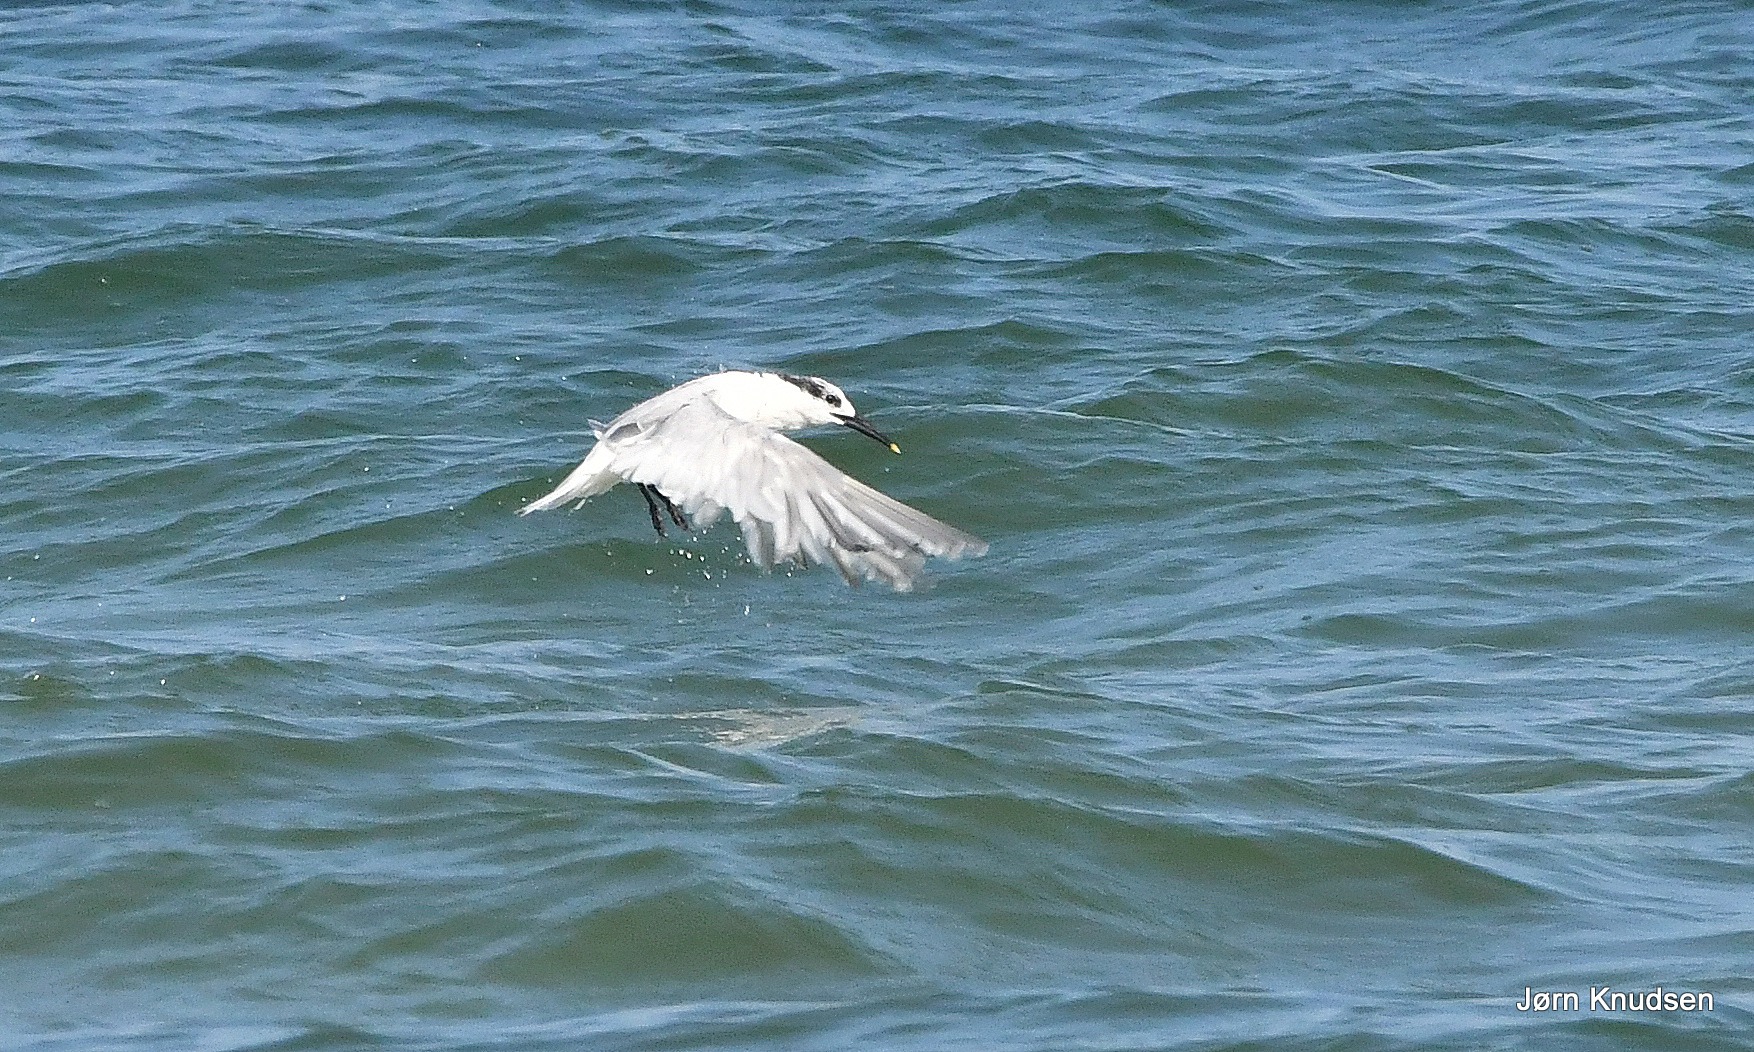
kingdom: Animalia
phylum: Chordata
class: Aves
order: Charadriiformes
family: Laridae
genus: Thalasseus
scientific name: Thalasseus sandvicensis
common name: Splitterne
